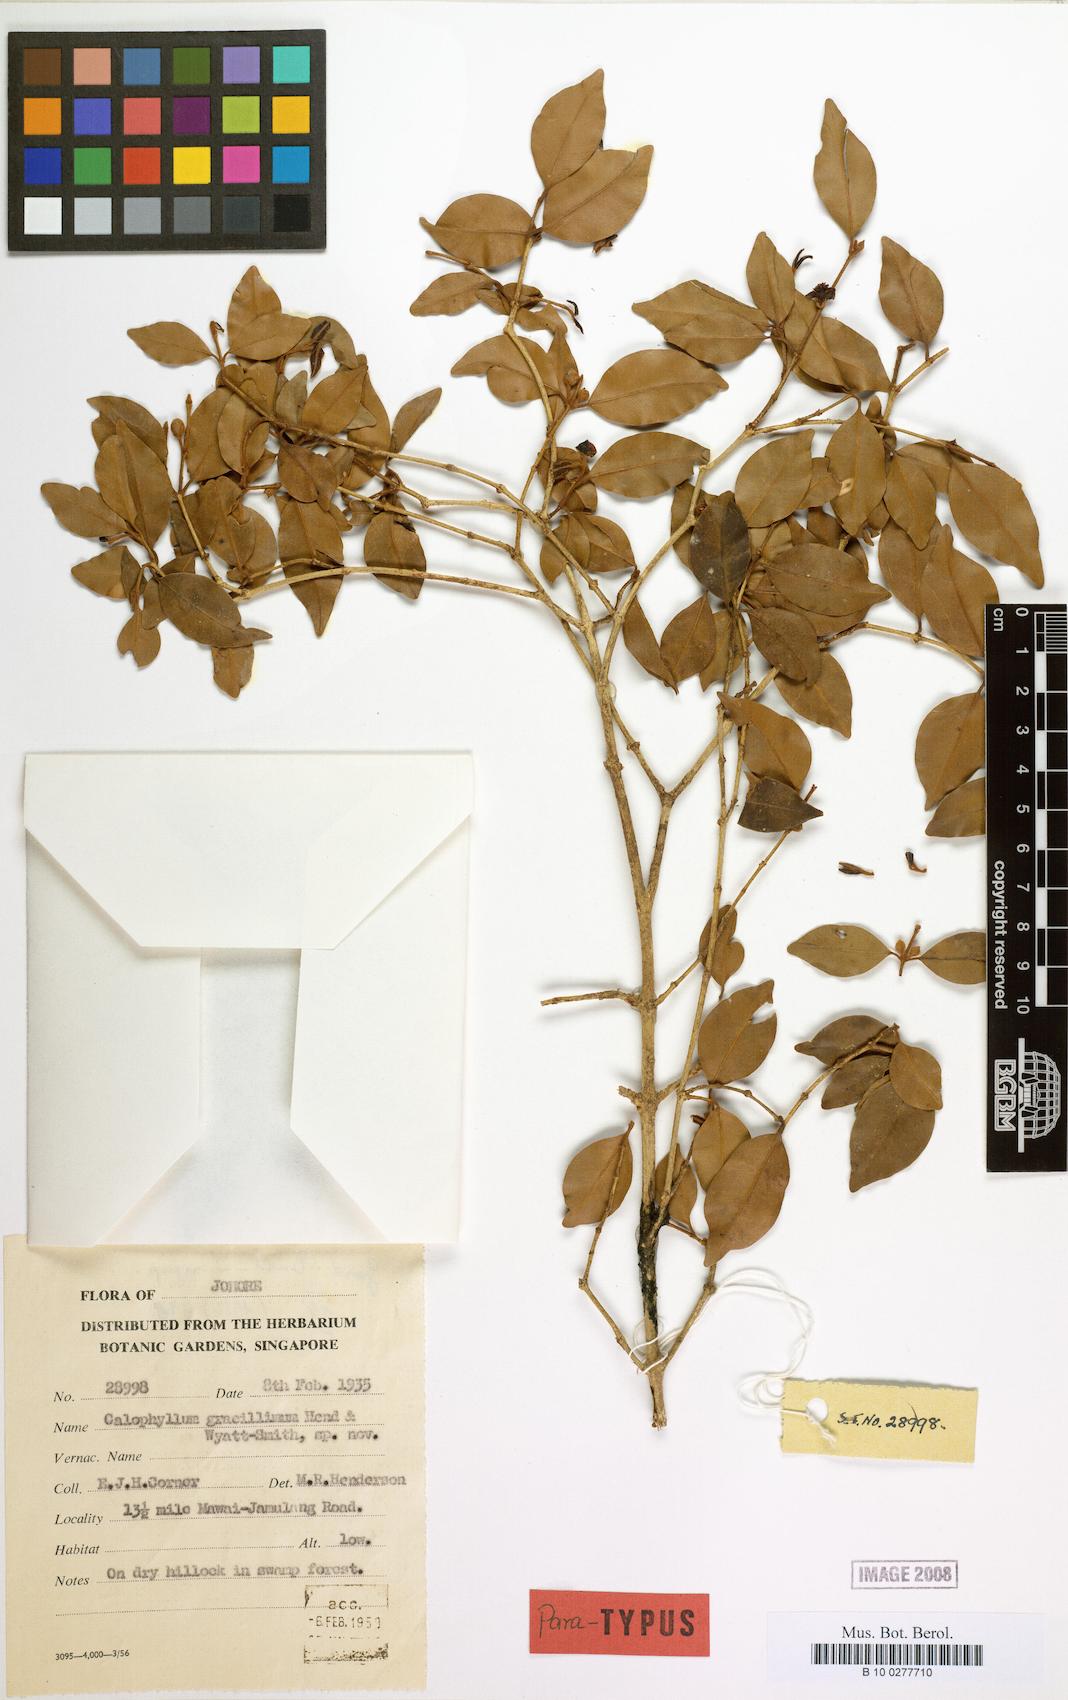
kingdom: Plantae
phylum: Tracheophyta
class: Magnoliopsida
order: Malpighiales
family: Calophyllaceae
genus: Calophyllum
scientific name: Calophyllum gracillimum
